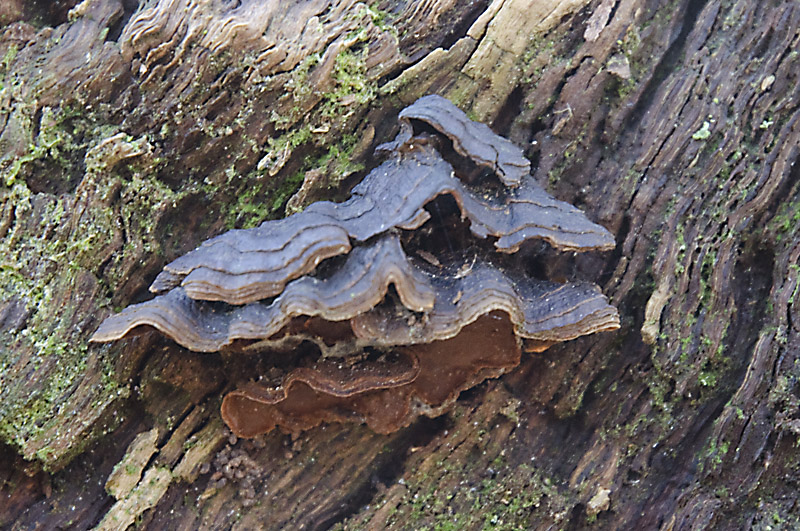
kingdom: Fungi
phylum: Basidiomycota
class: Agaricomycetes
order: Hymenochaetales
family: Hymenochaetaceae
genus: Hymenochaete
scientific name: Hymenochaete rubiginosa
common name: stiv ruslædersvamp
